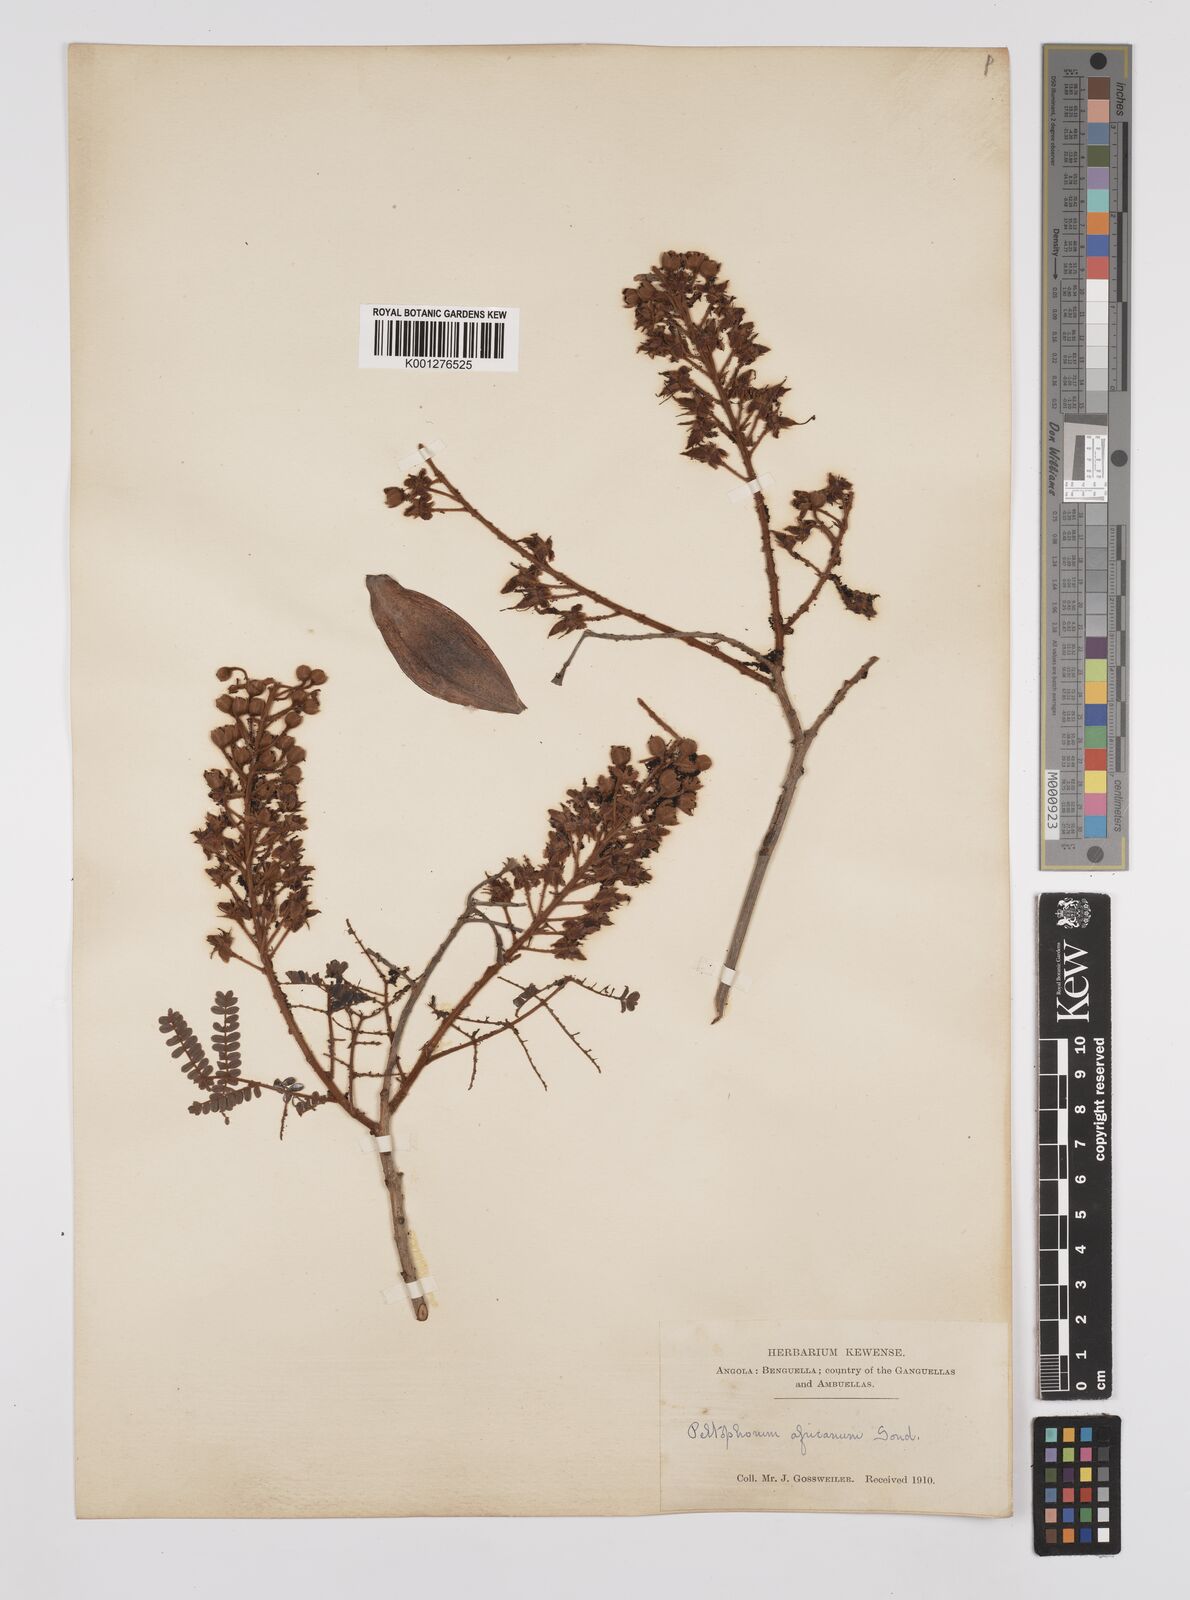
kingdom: Plantae
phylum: Tracheophyta
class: Magnoliopsida
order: Fabales
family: Fabaceae
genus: Peltophorum
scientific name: Peltophorum africanum
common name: African black wattle
